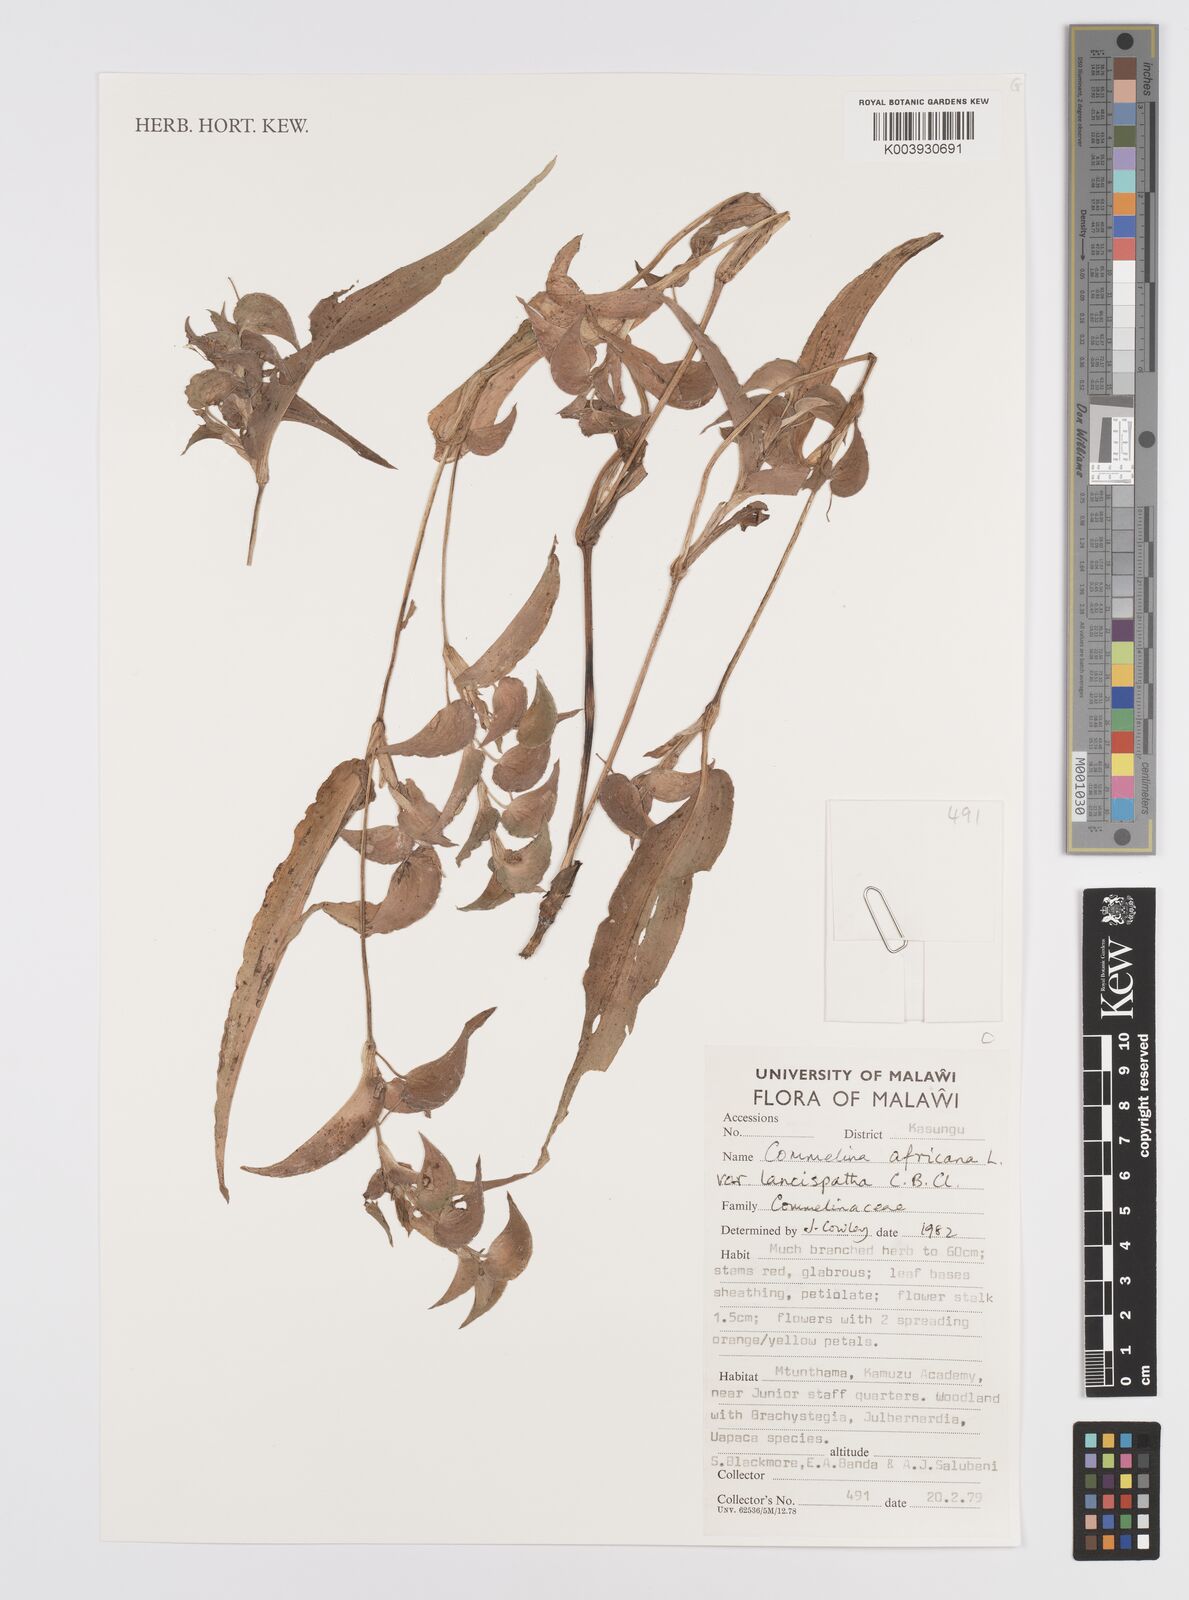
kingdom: Plantae
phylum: Tracheophyta
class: Liliopsida
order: Commelinales
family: Commelinaceae
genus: Commelina
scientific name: Commelina africana
